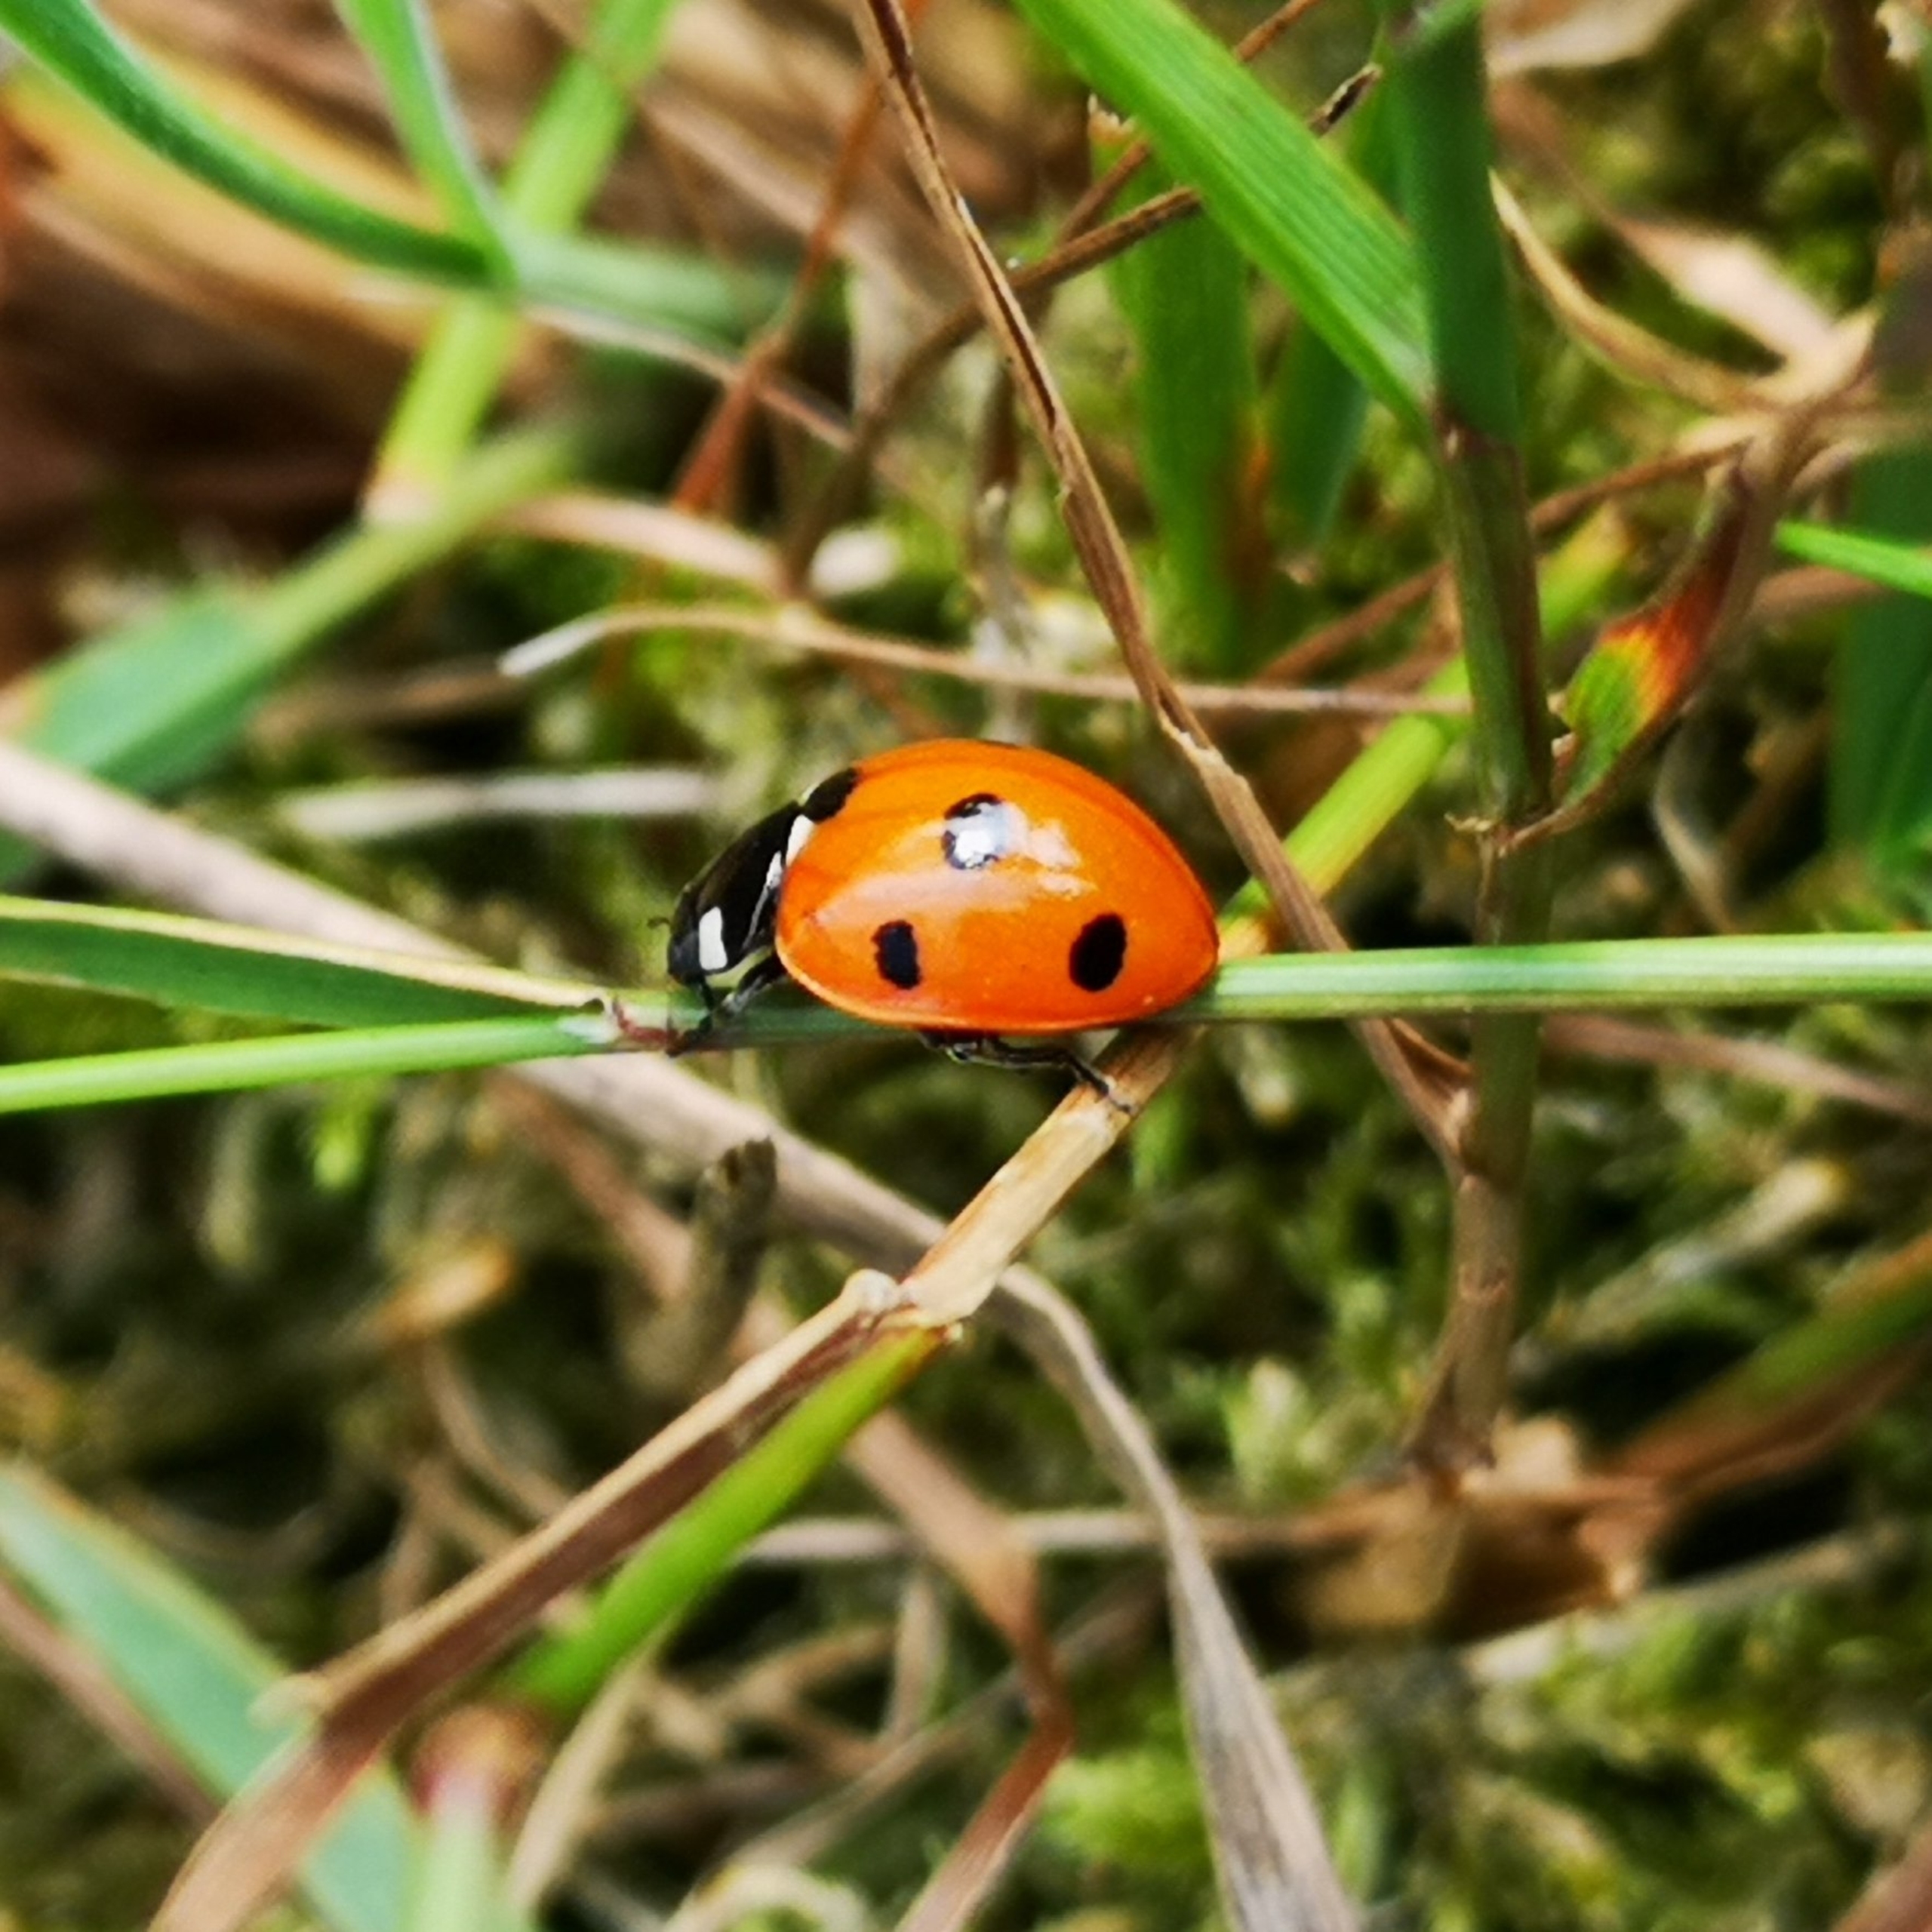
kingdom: Animalia
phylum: Arthropoda
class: Insecta
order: Coleoptera
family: Coccinellidae
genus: Coccinella
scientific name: Coccinella septempunctata
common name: Syvplettet mariehøne
